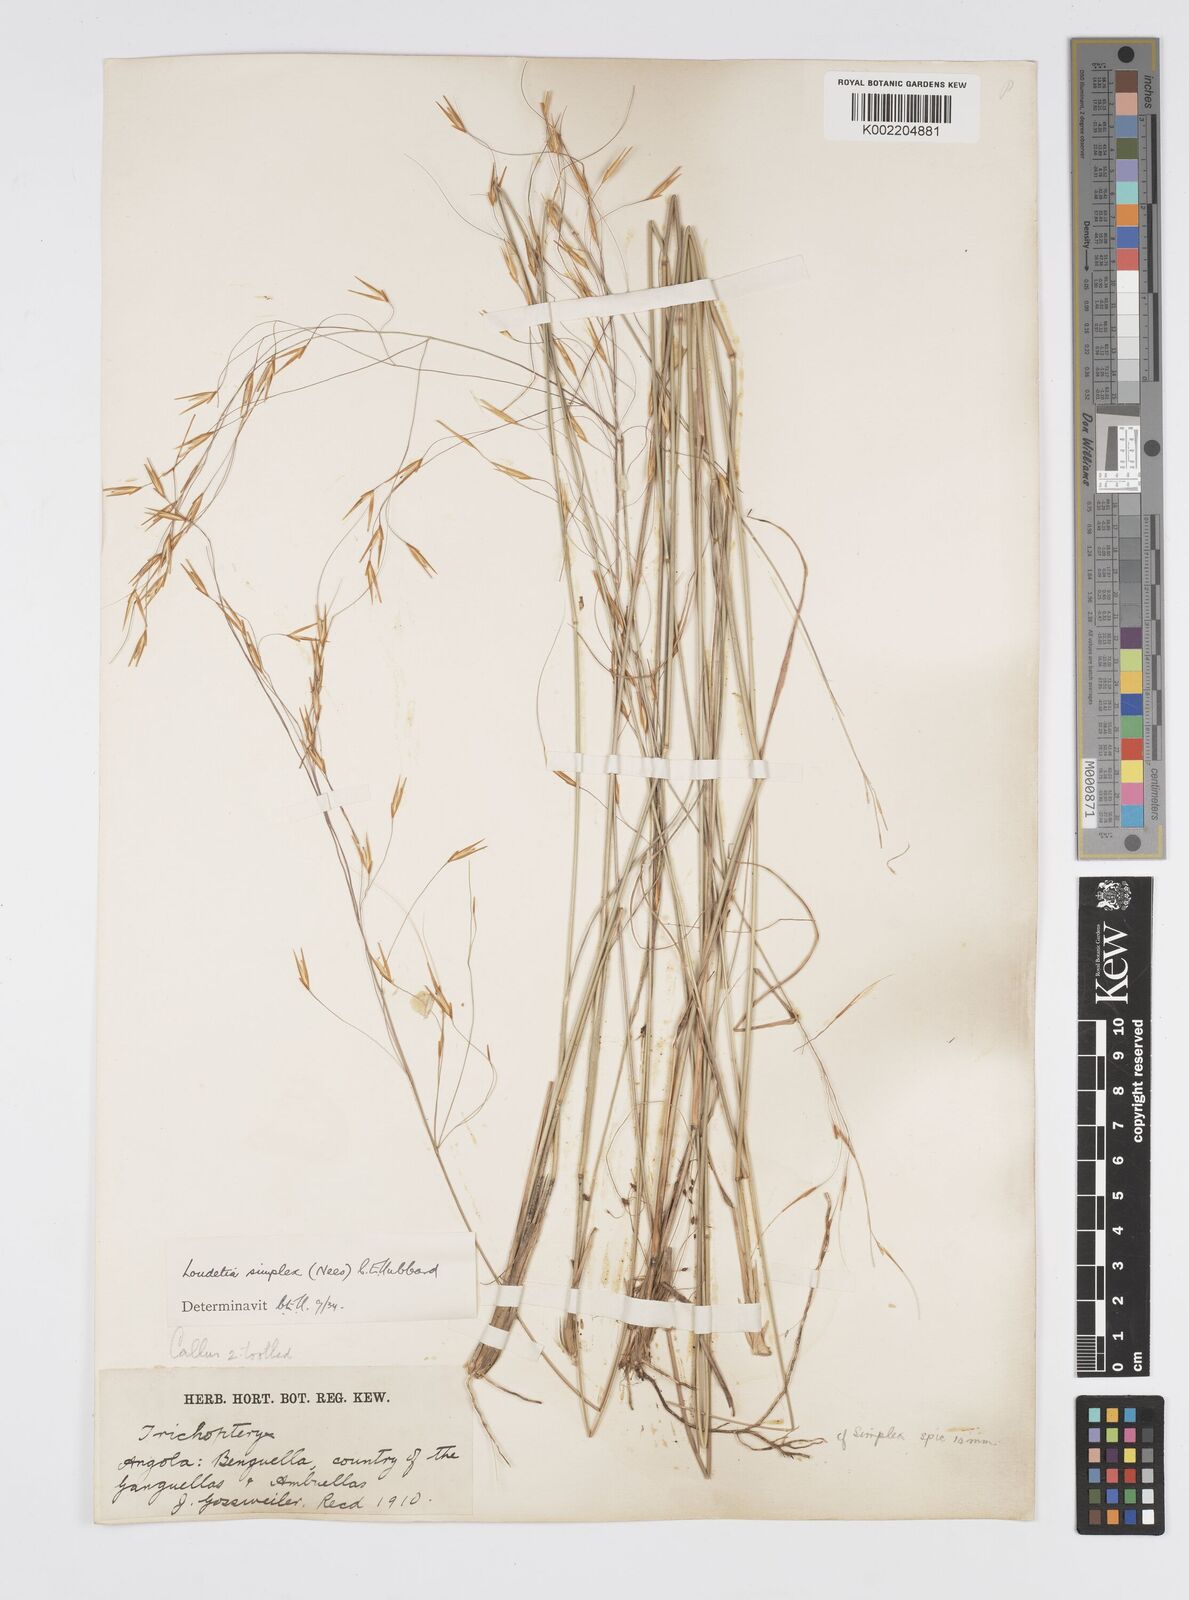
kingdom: Plantae
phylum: Tracheophyta
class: Liliopsida
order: Poales
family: Poaceae
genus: Loudetia
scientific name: Loudetia simplex
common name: Common russet grass
